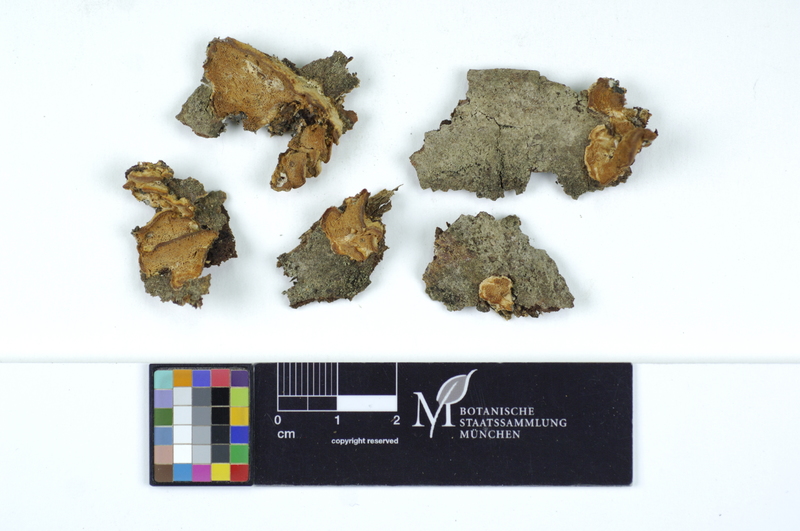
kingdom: Plantae
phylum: Tracheophyta
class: Magnoliopsida
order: Malpighiales
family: Salicaceae
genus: Salix
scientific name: Salix
